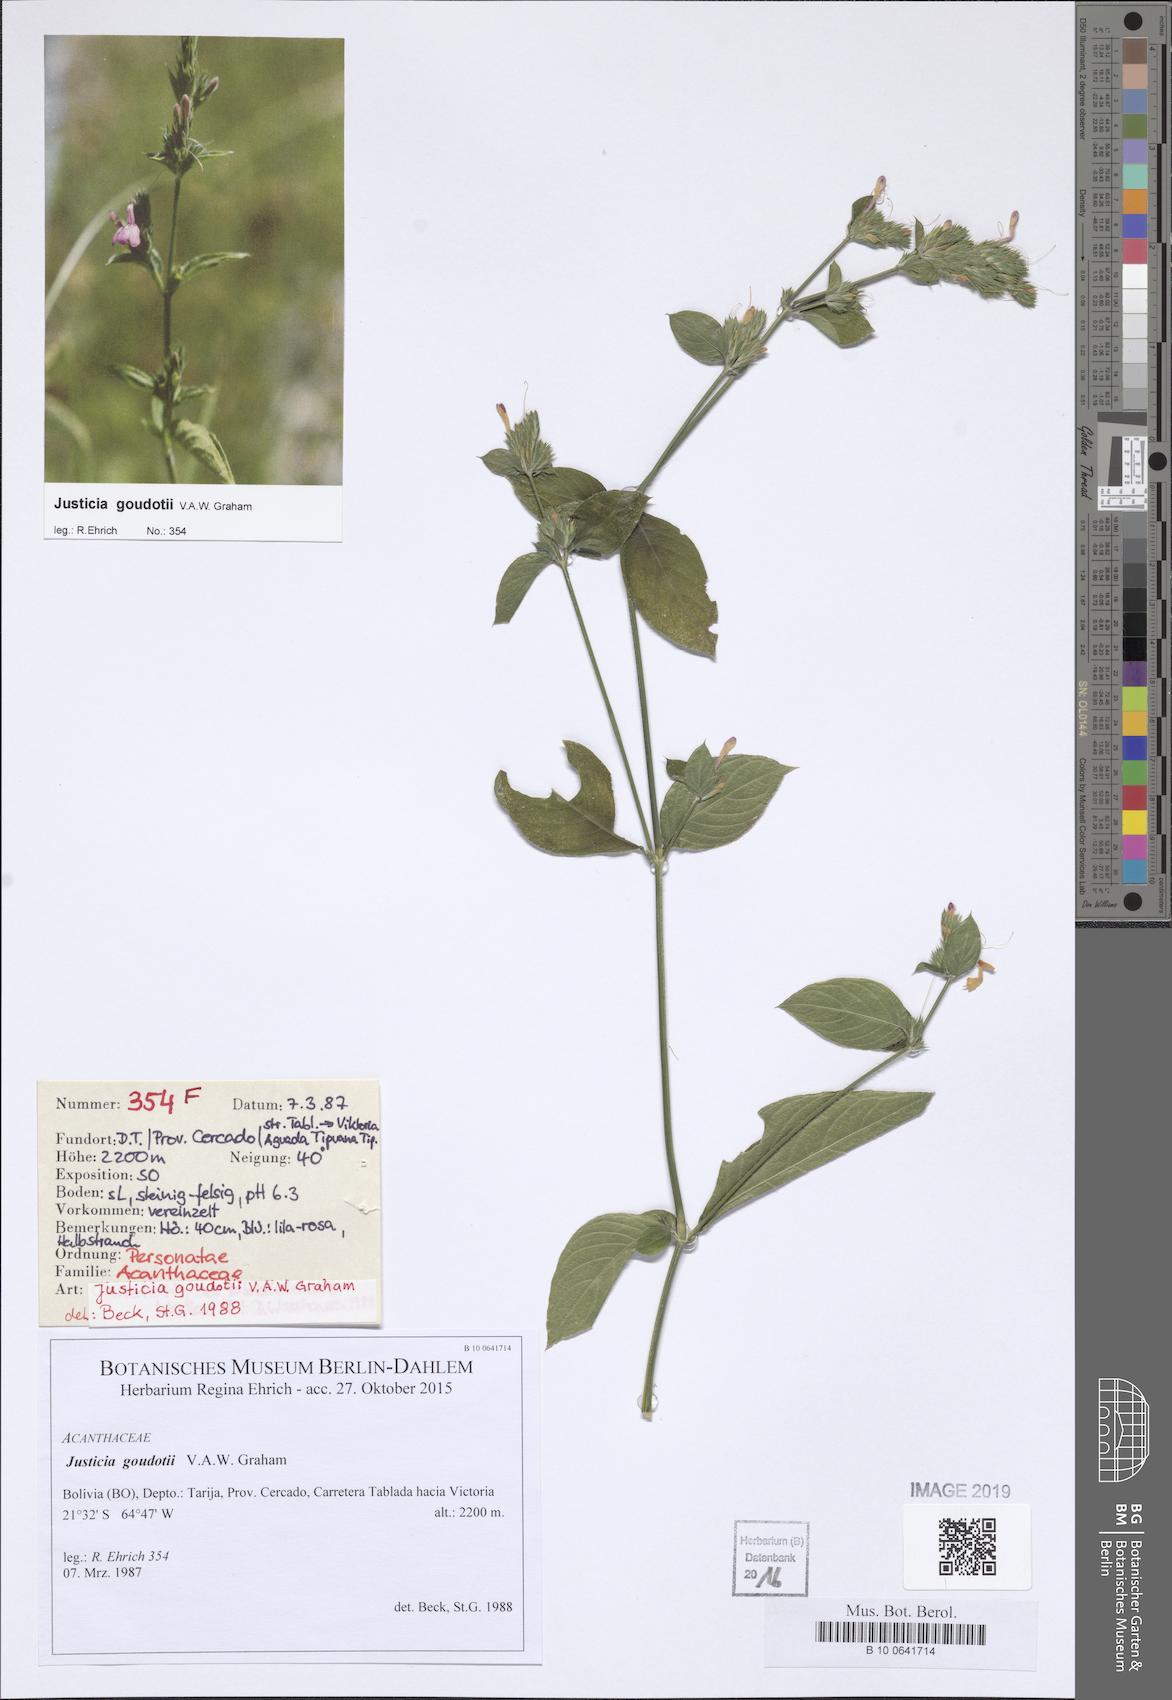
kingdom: Plantae
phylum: Tracheophyta
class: Magnoliopsida
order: Lamiales
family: Acanthaceae
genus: Justicia
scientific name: Justicia goudotii
